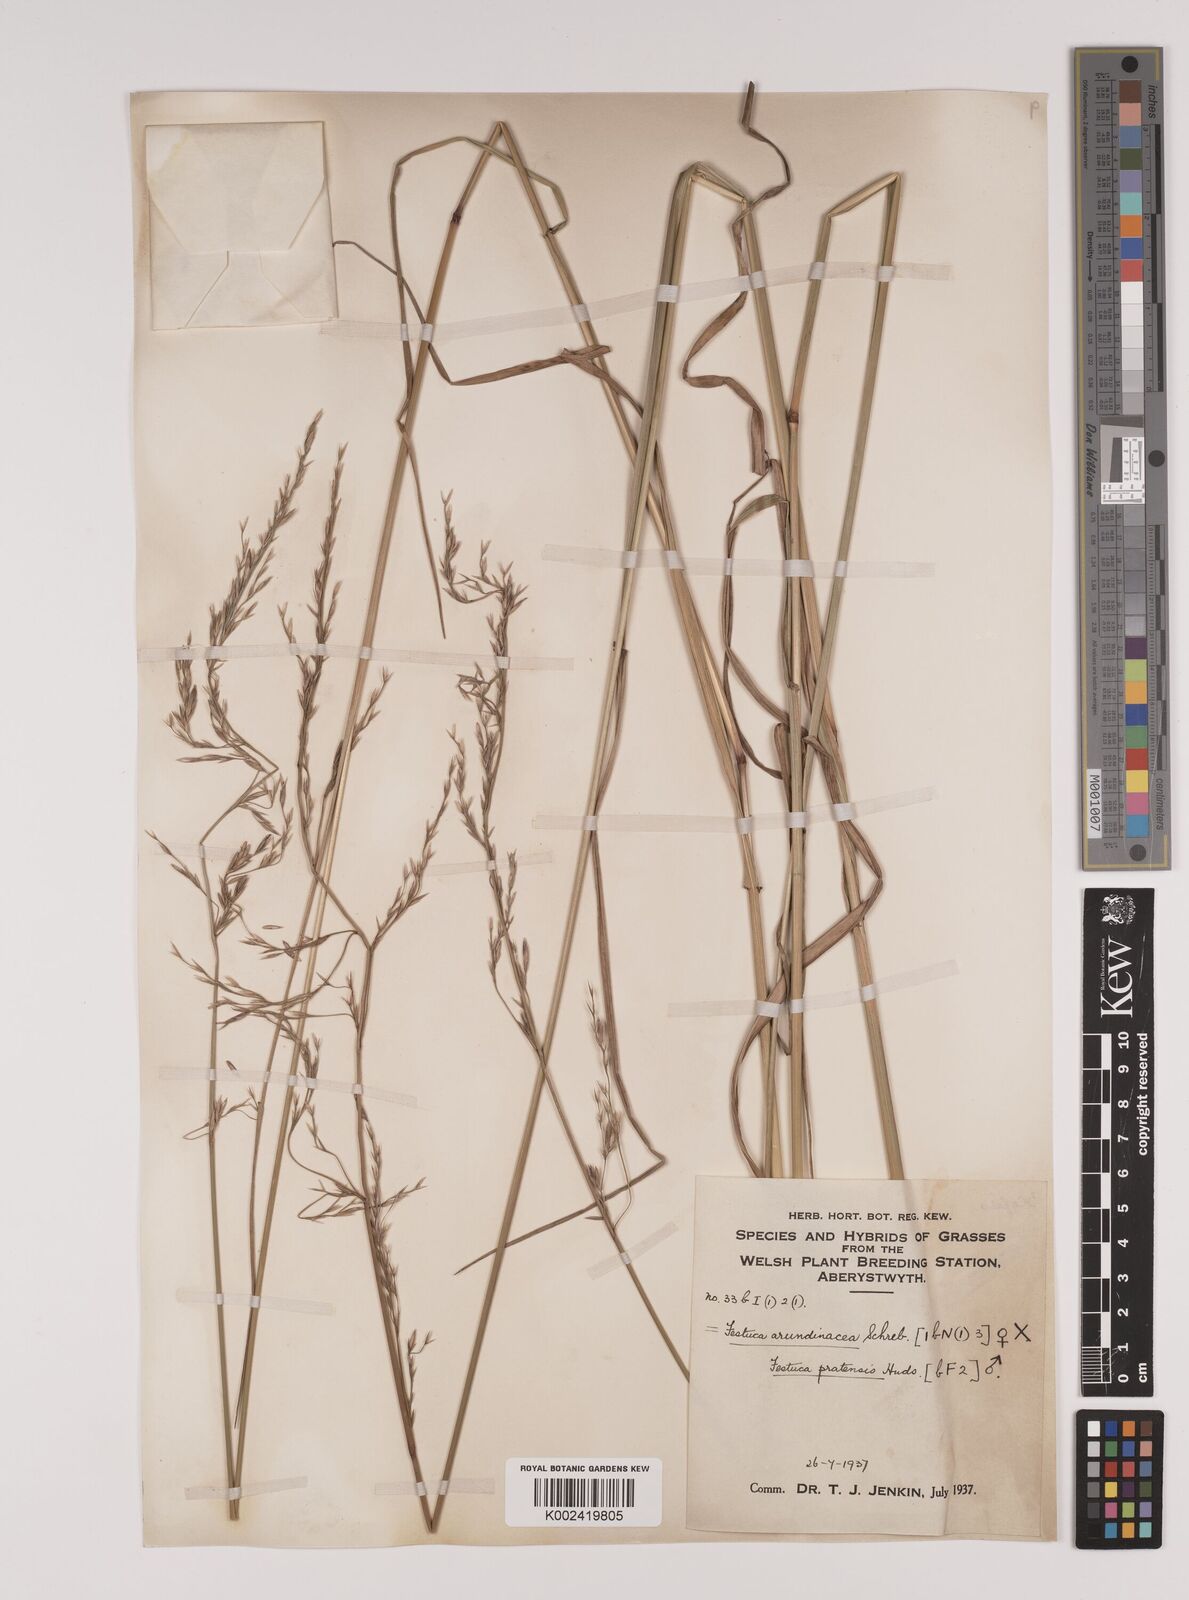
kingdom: Plantae
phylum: Tracheophyta
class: Liliopsida
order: Poales
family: Poaceae
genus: Festuca
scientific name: Festuca rubra
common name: Red fescue
